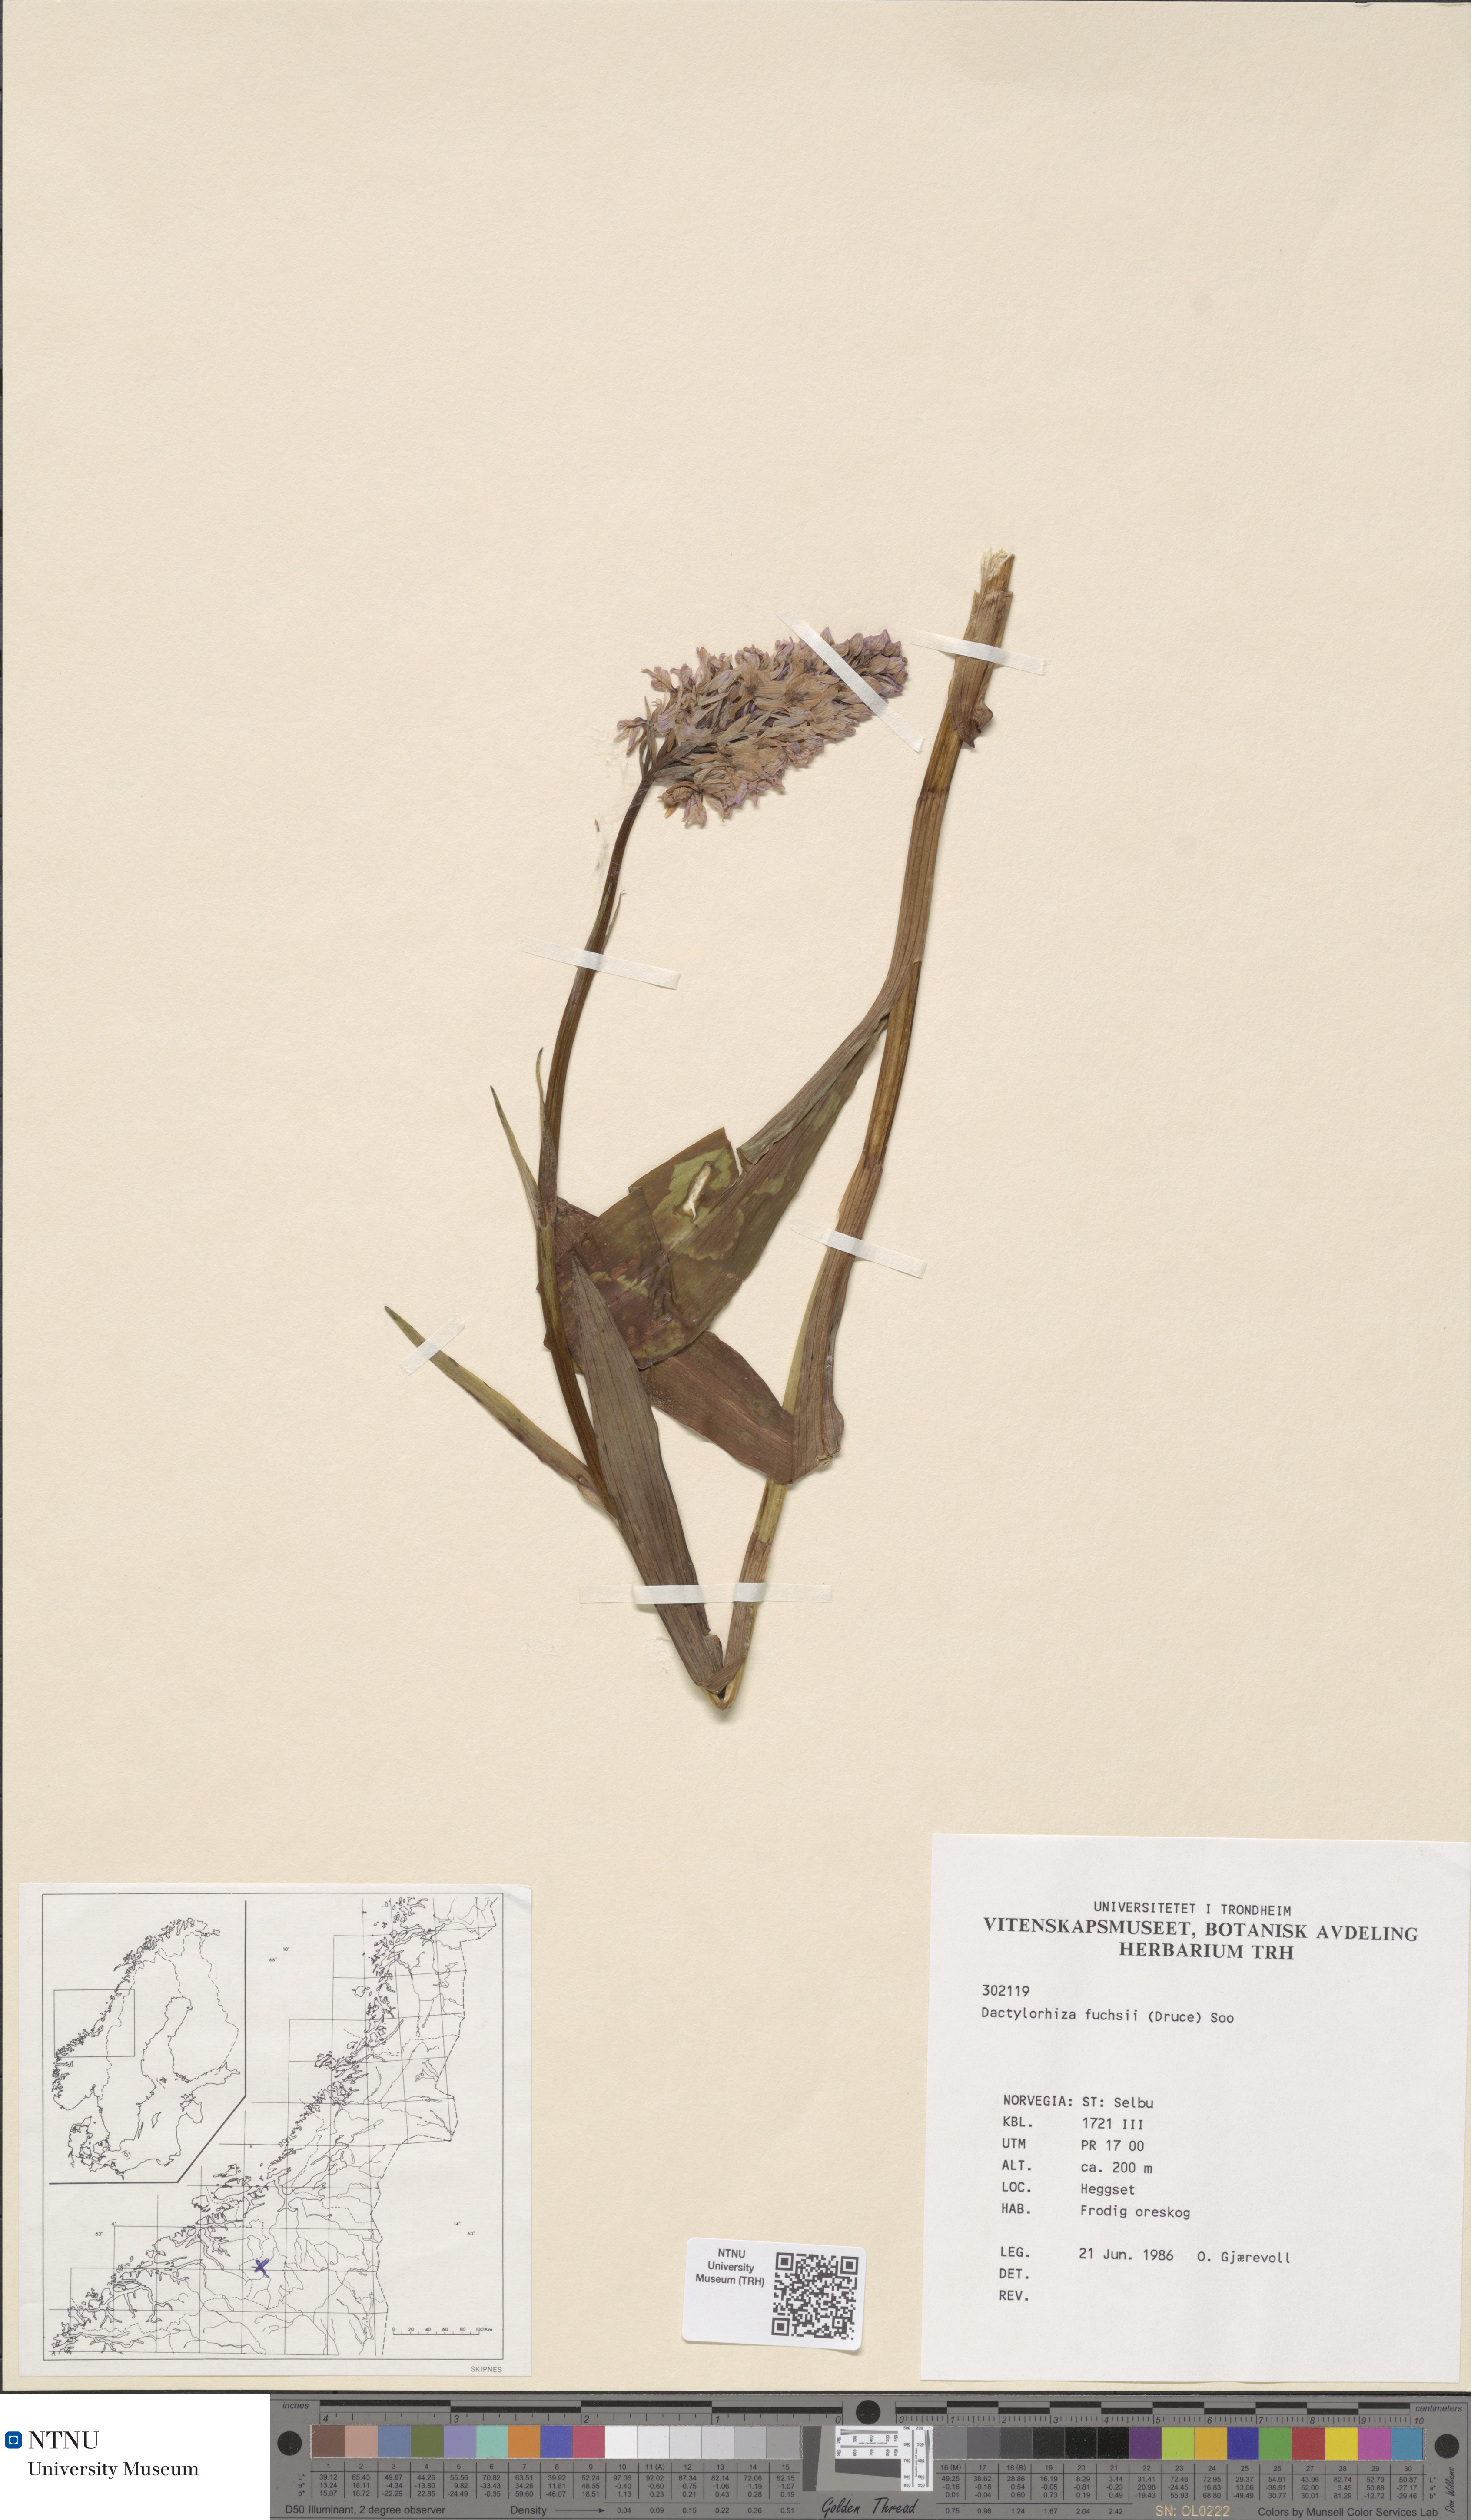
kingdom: Plantae
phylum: Tracheophyta
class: Liliopsida
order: Asparagales
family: Orchidaceae
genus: Dactylorhiza
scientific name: Dactylorhiza maculata
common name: Heath spotted-orchid
